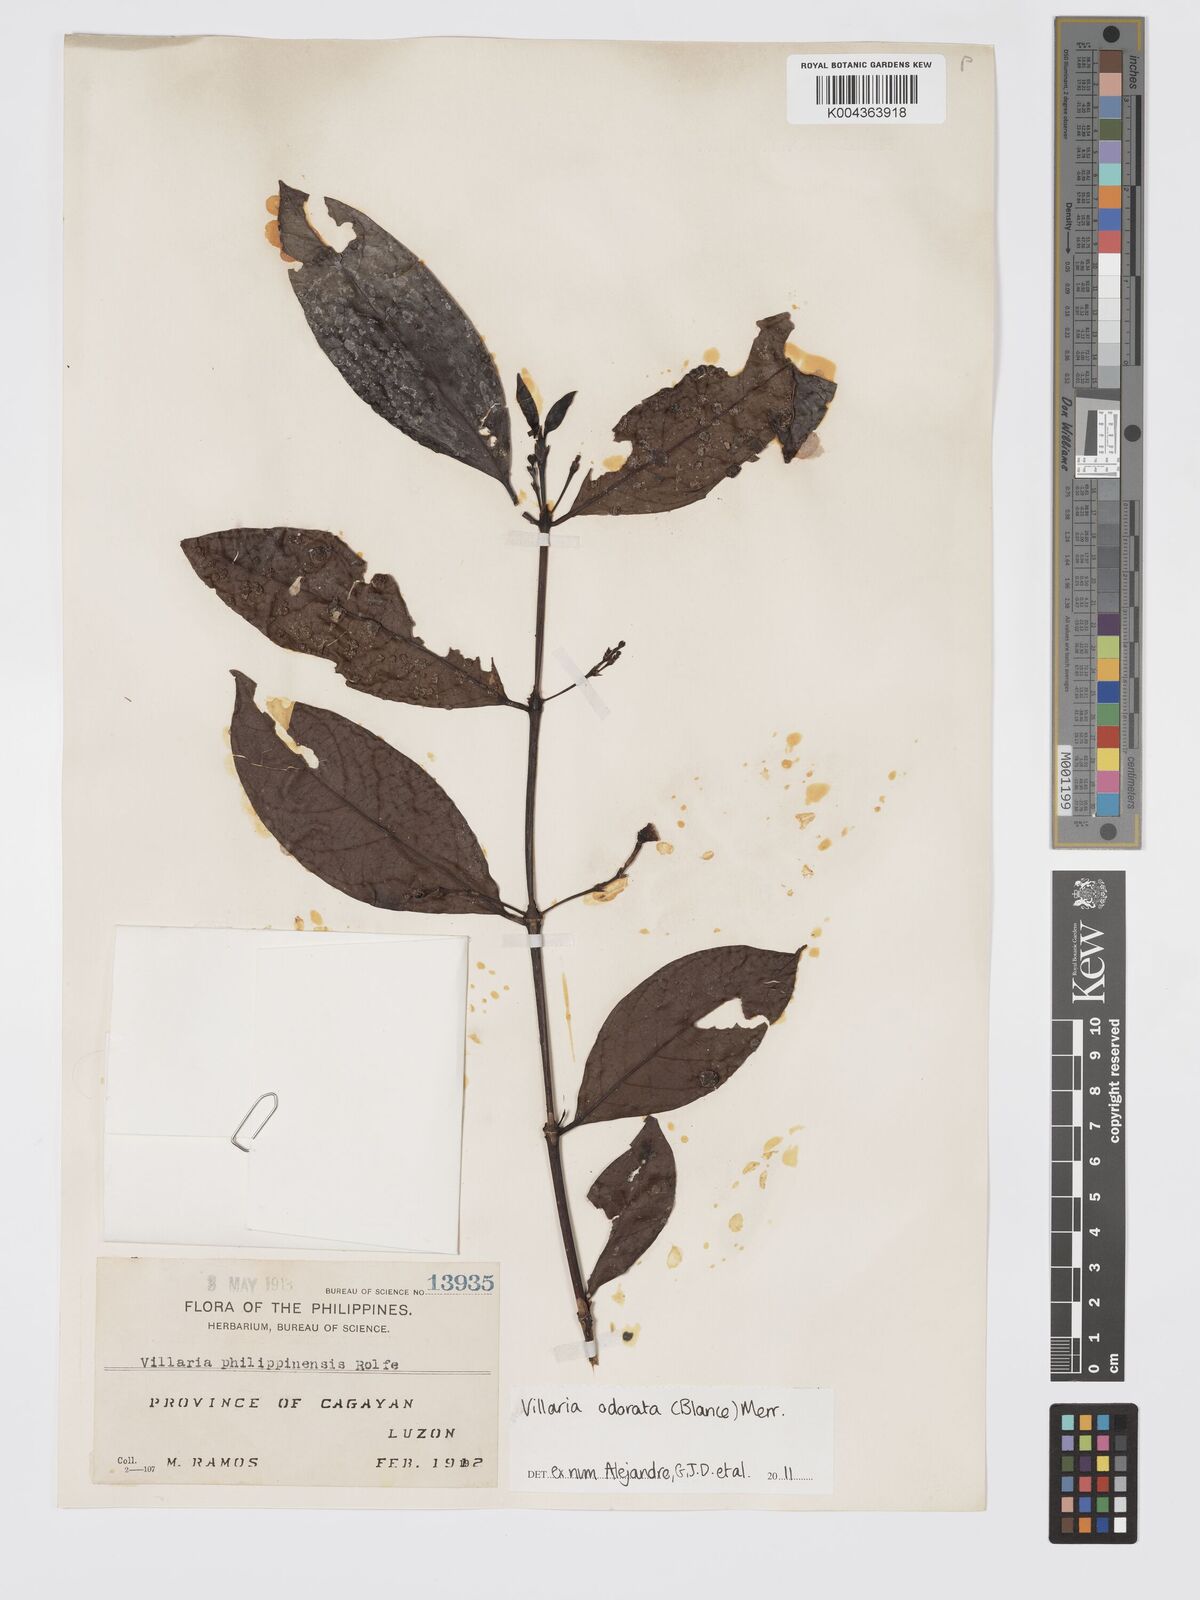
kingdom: Plantae
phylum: Tracheophyta
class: Magnoliopsida
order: Gentianales
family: Rubiaceae
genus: Villaria
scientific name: Villaria odorata
